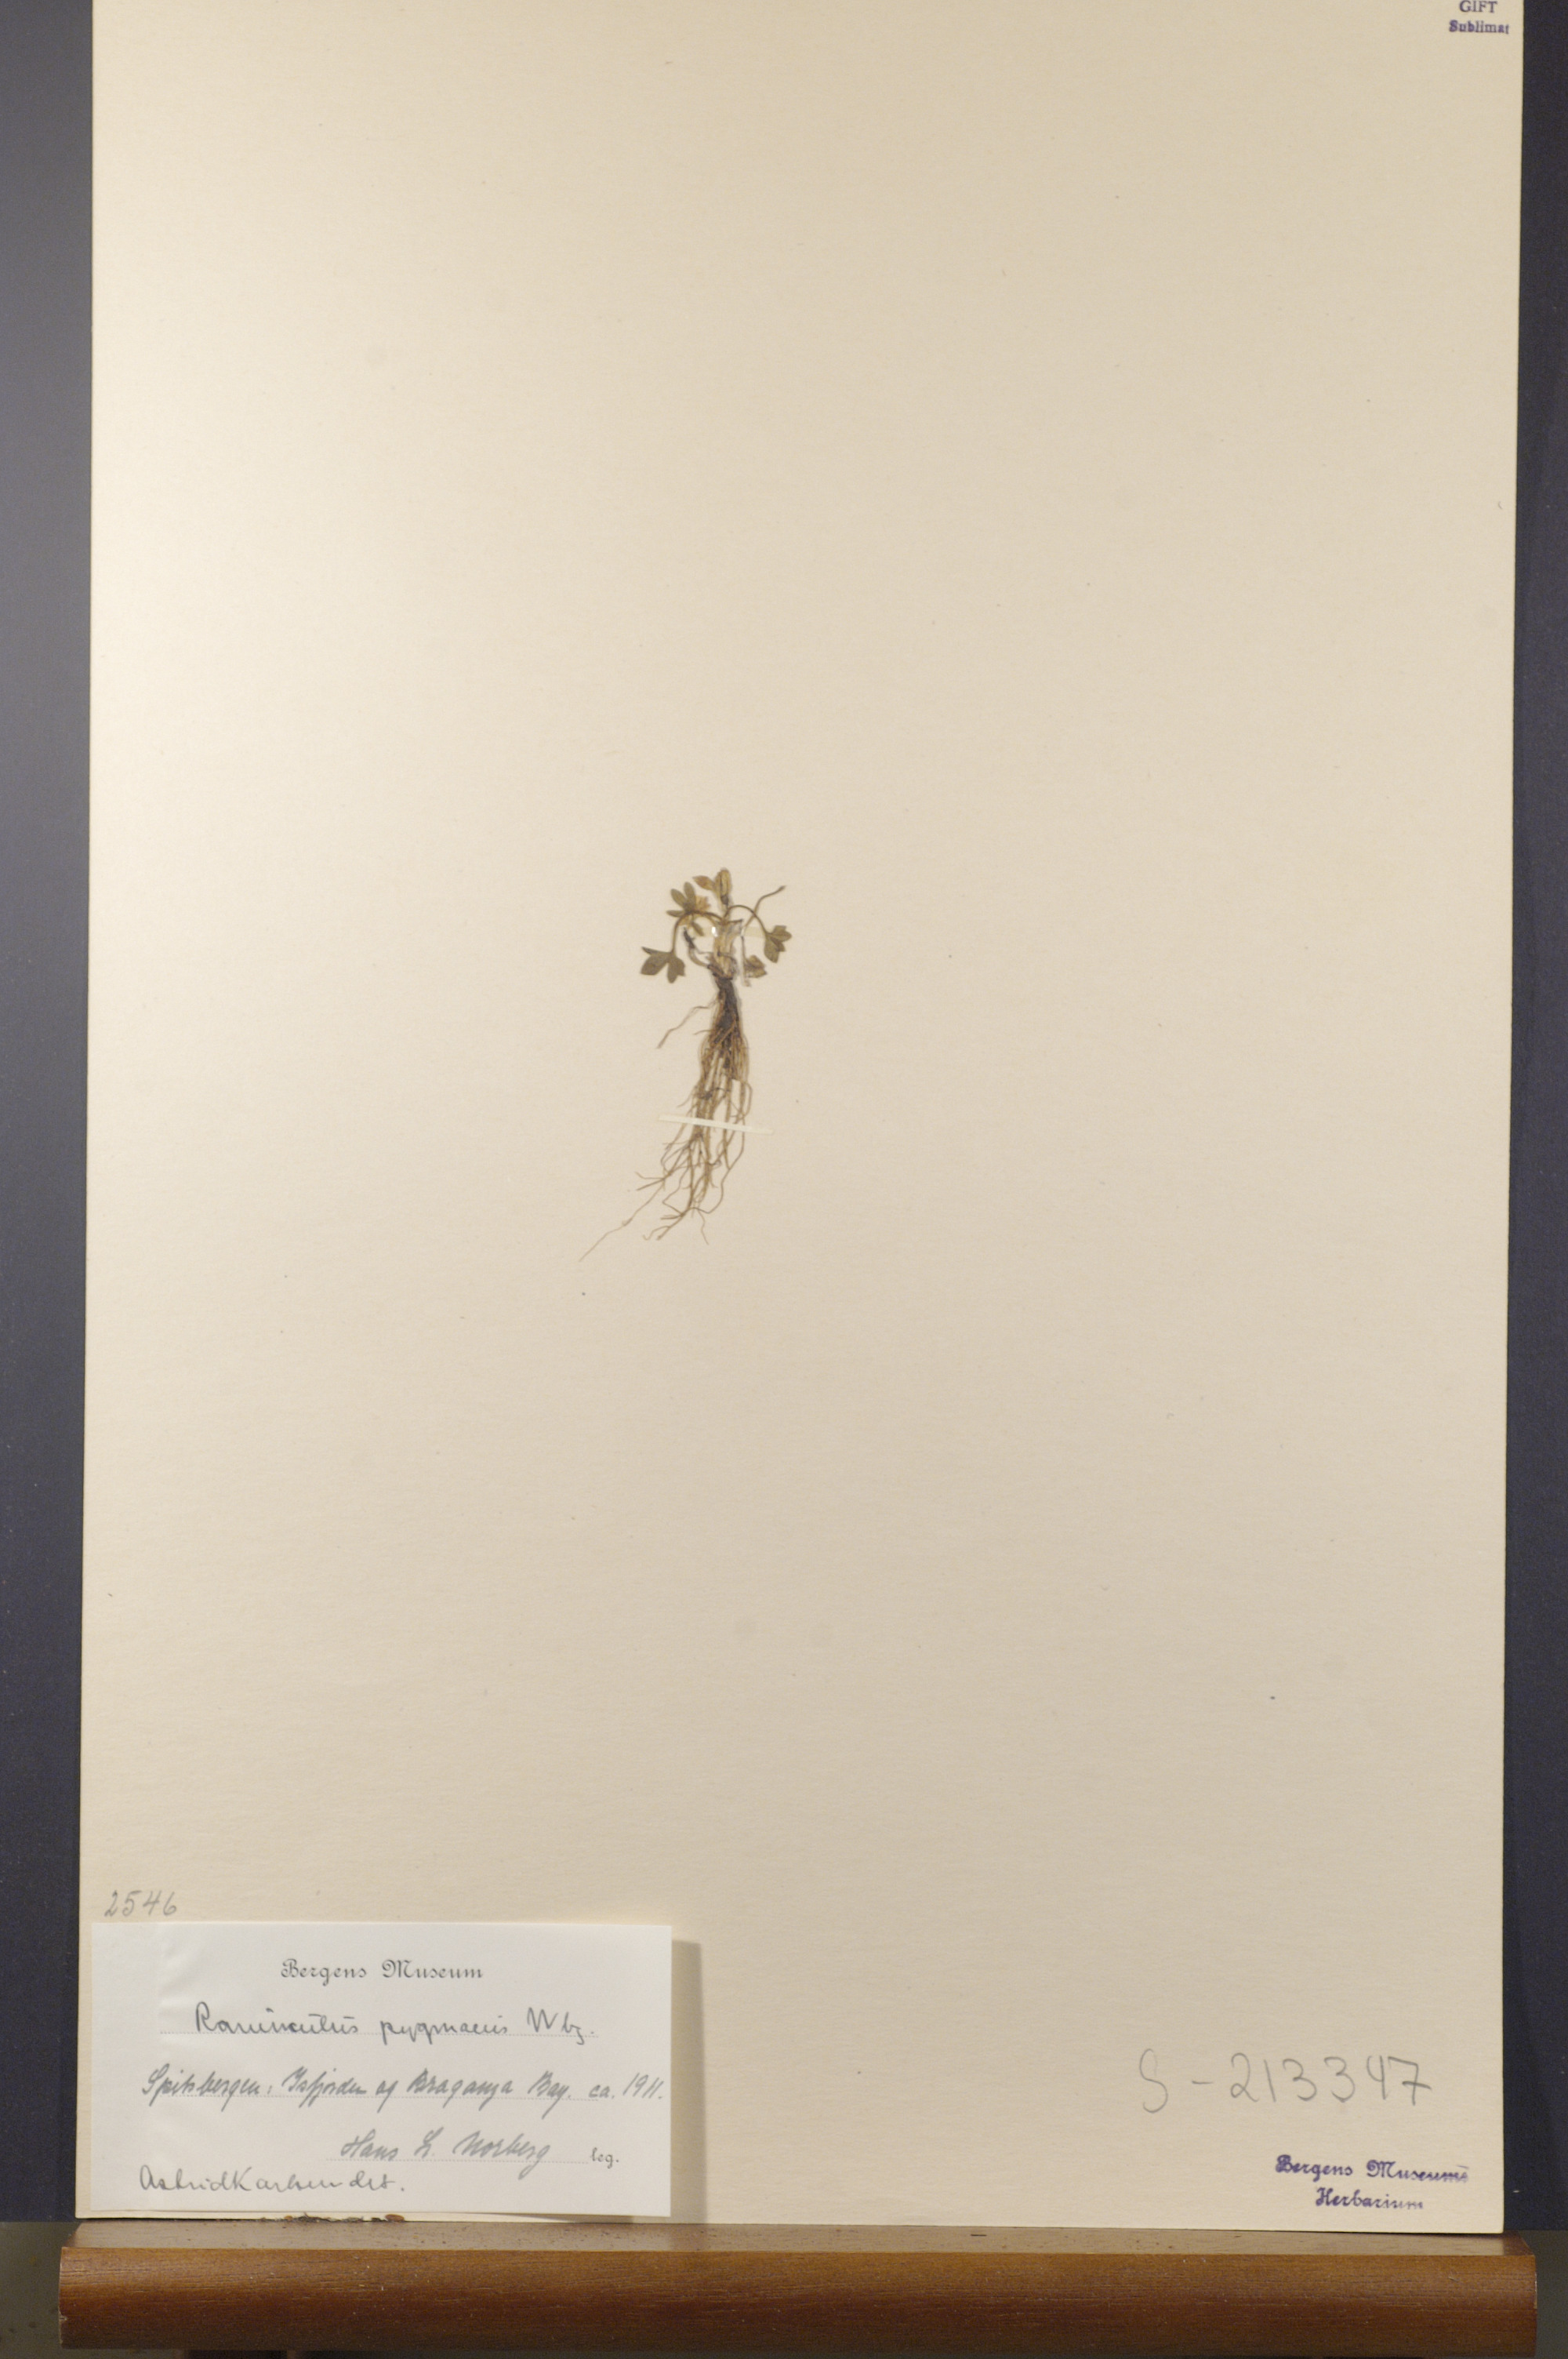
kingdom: Plantae
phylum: Tracheophyta
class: Magnoliopsida
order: Ranunculales
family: Ranunculaceae
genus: Ranunculus
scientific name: Ranunculus pygmaeus
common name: Dwarf buttercup
